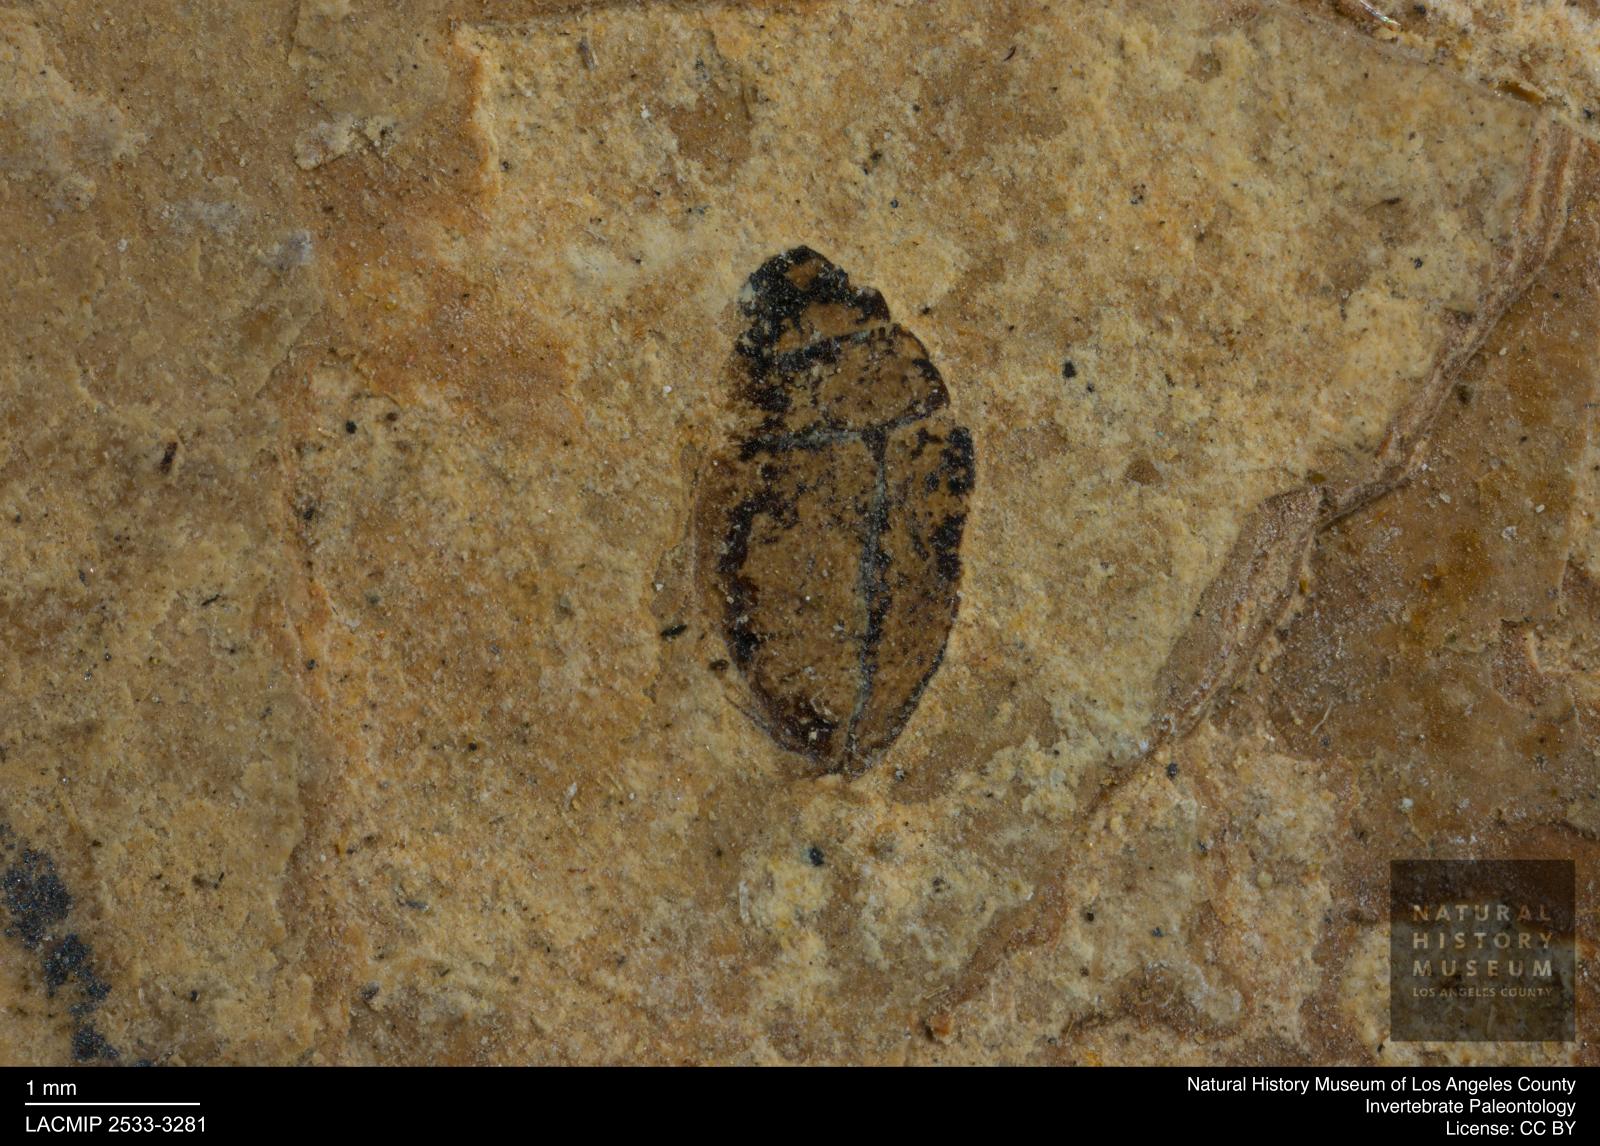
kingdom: Animalia
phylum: Arthropoda
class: Insecta
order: Coleoptera
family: Hydrophilidae
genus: Paracymus
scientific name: Paracymus excitatus
